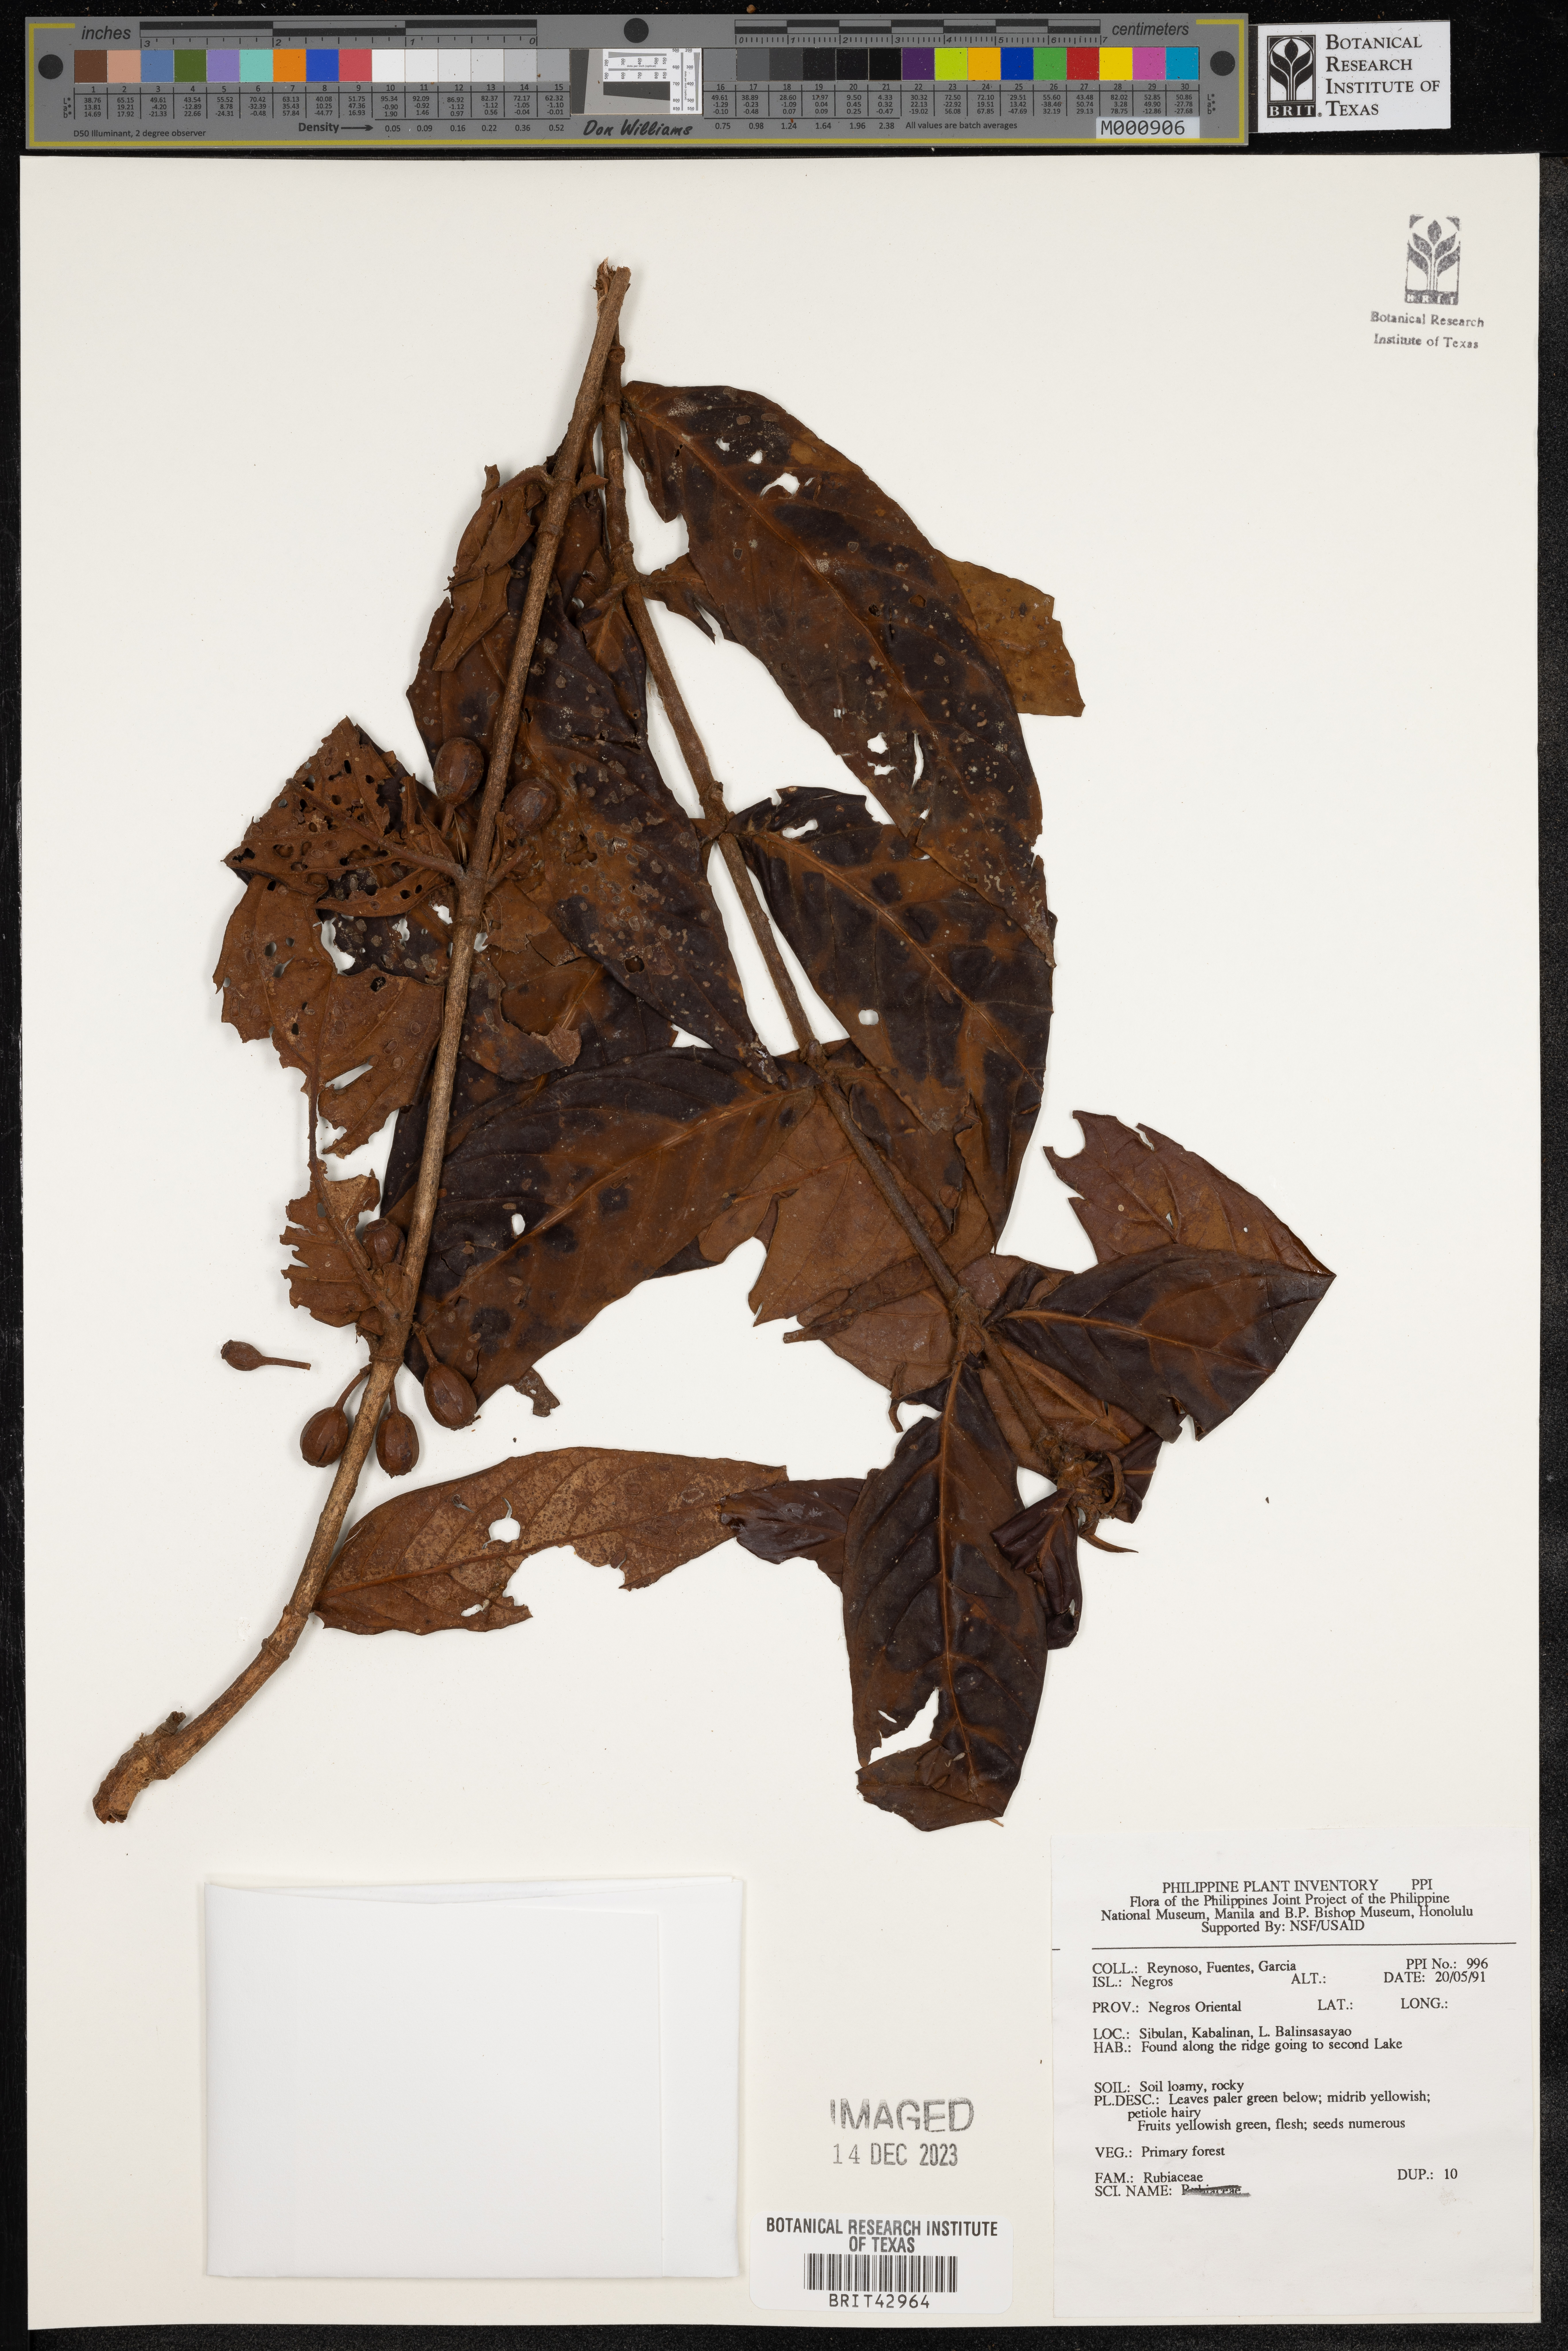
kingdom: Plantae
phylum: Tracheophyta
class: Magnoliopsida
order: Gentianales
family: Rubiaceae
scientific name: Rubiaceae
